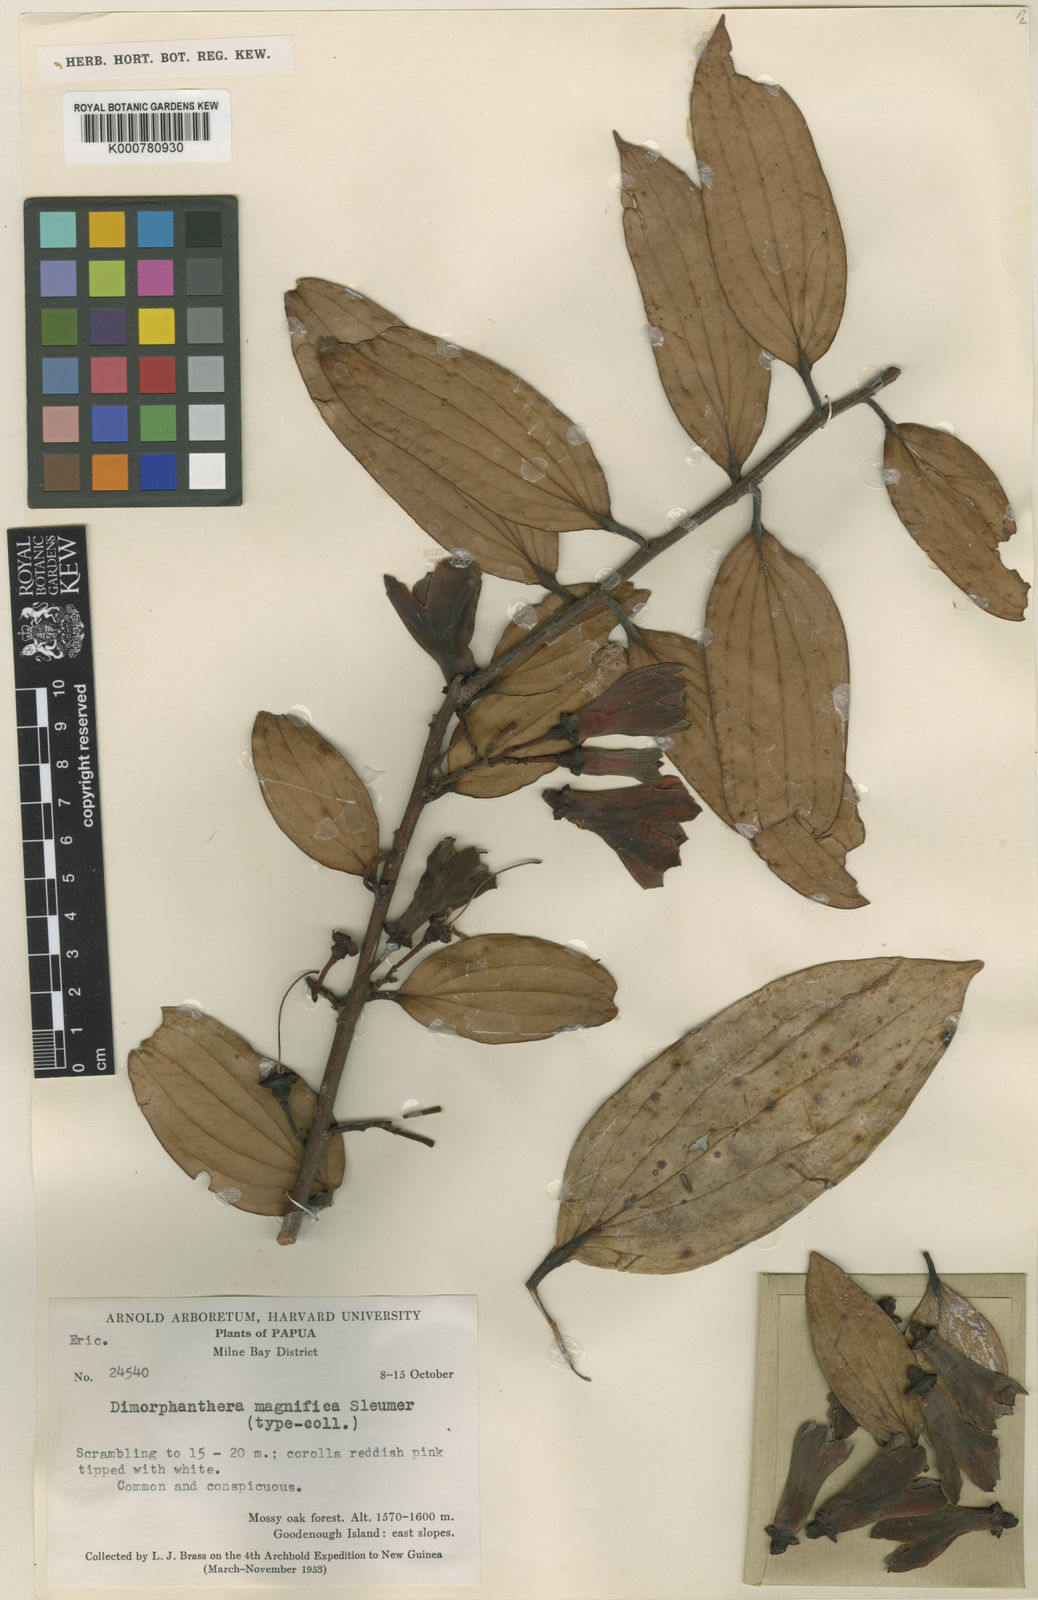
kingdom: Plantae
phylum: Tracheophyta
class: Magnoliopsida
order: Ericales
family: Ericaceae
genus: Dimorphanthera
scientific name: Dimorphanthera magnifica
